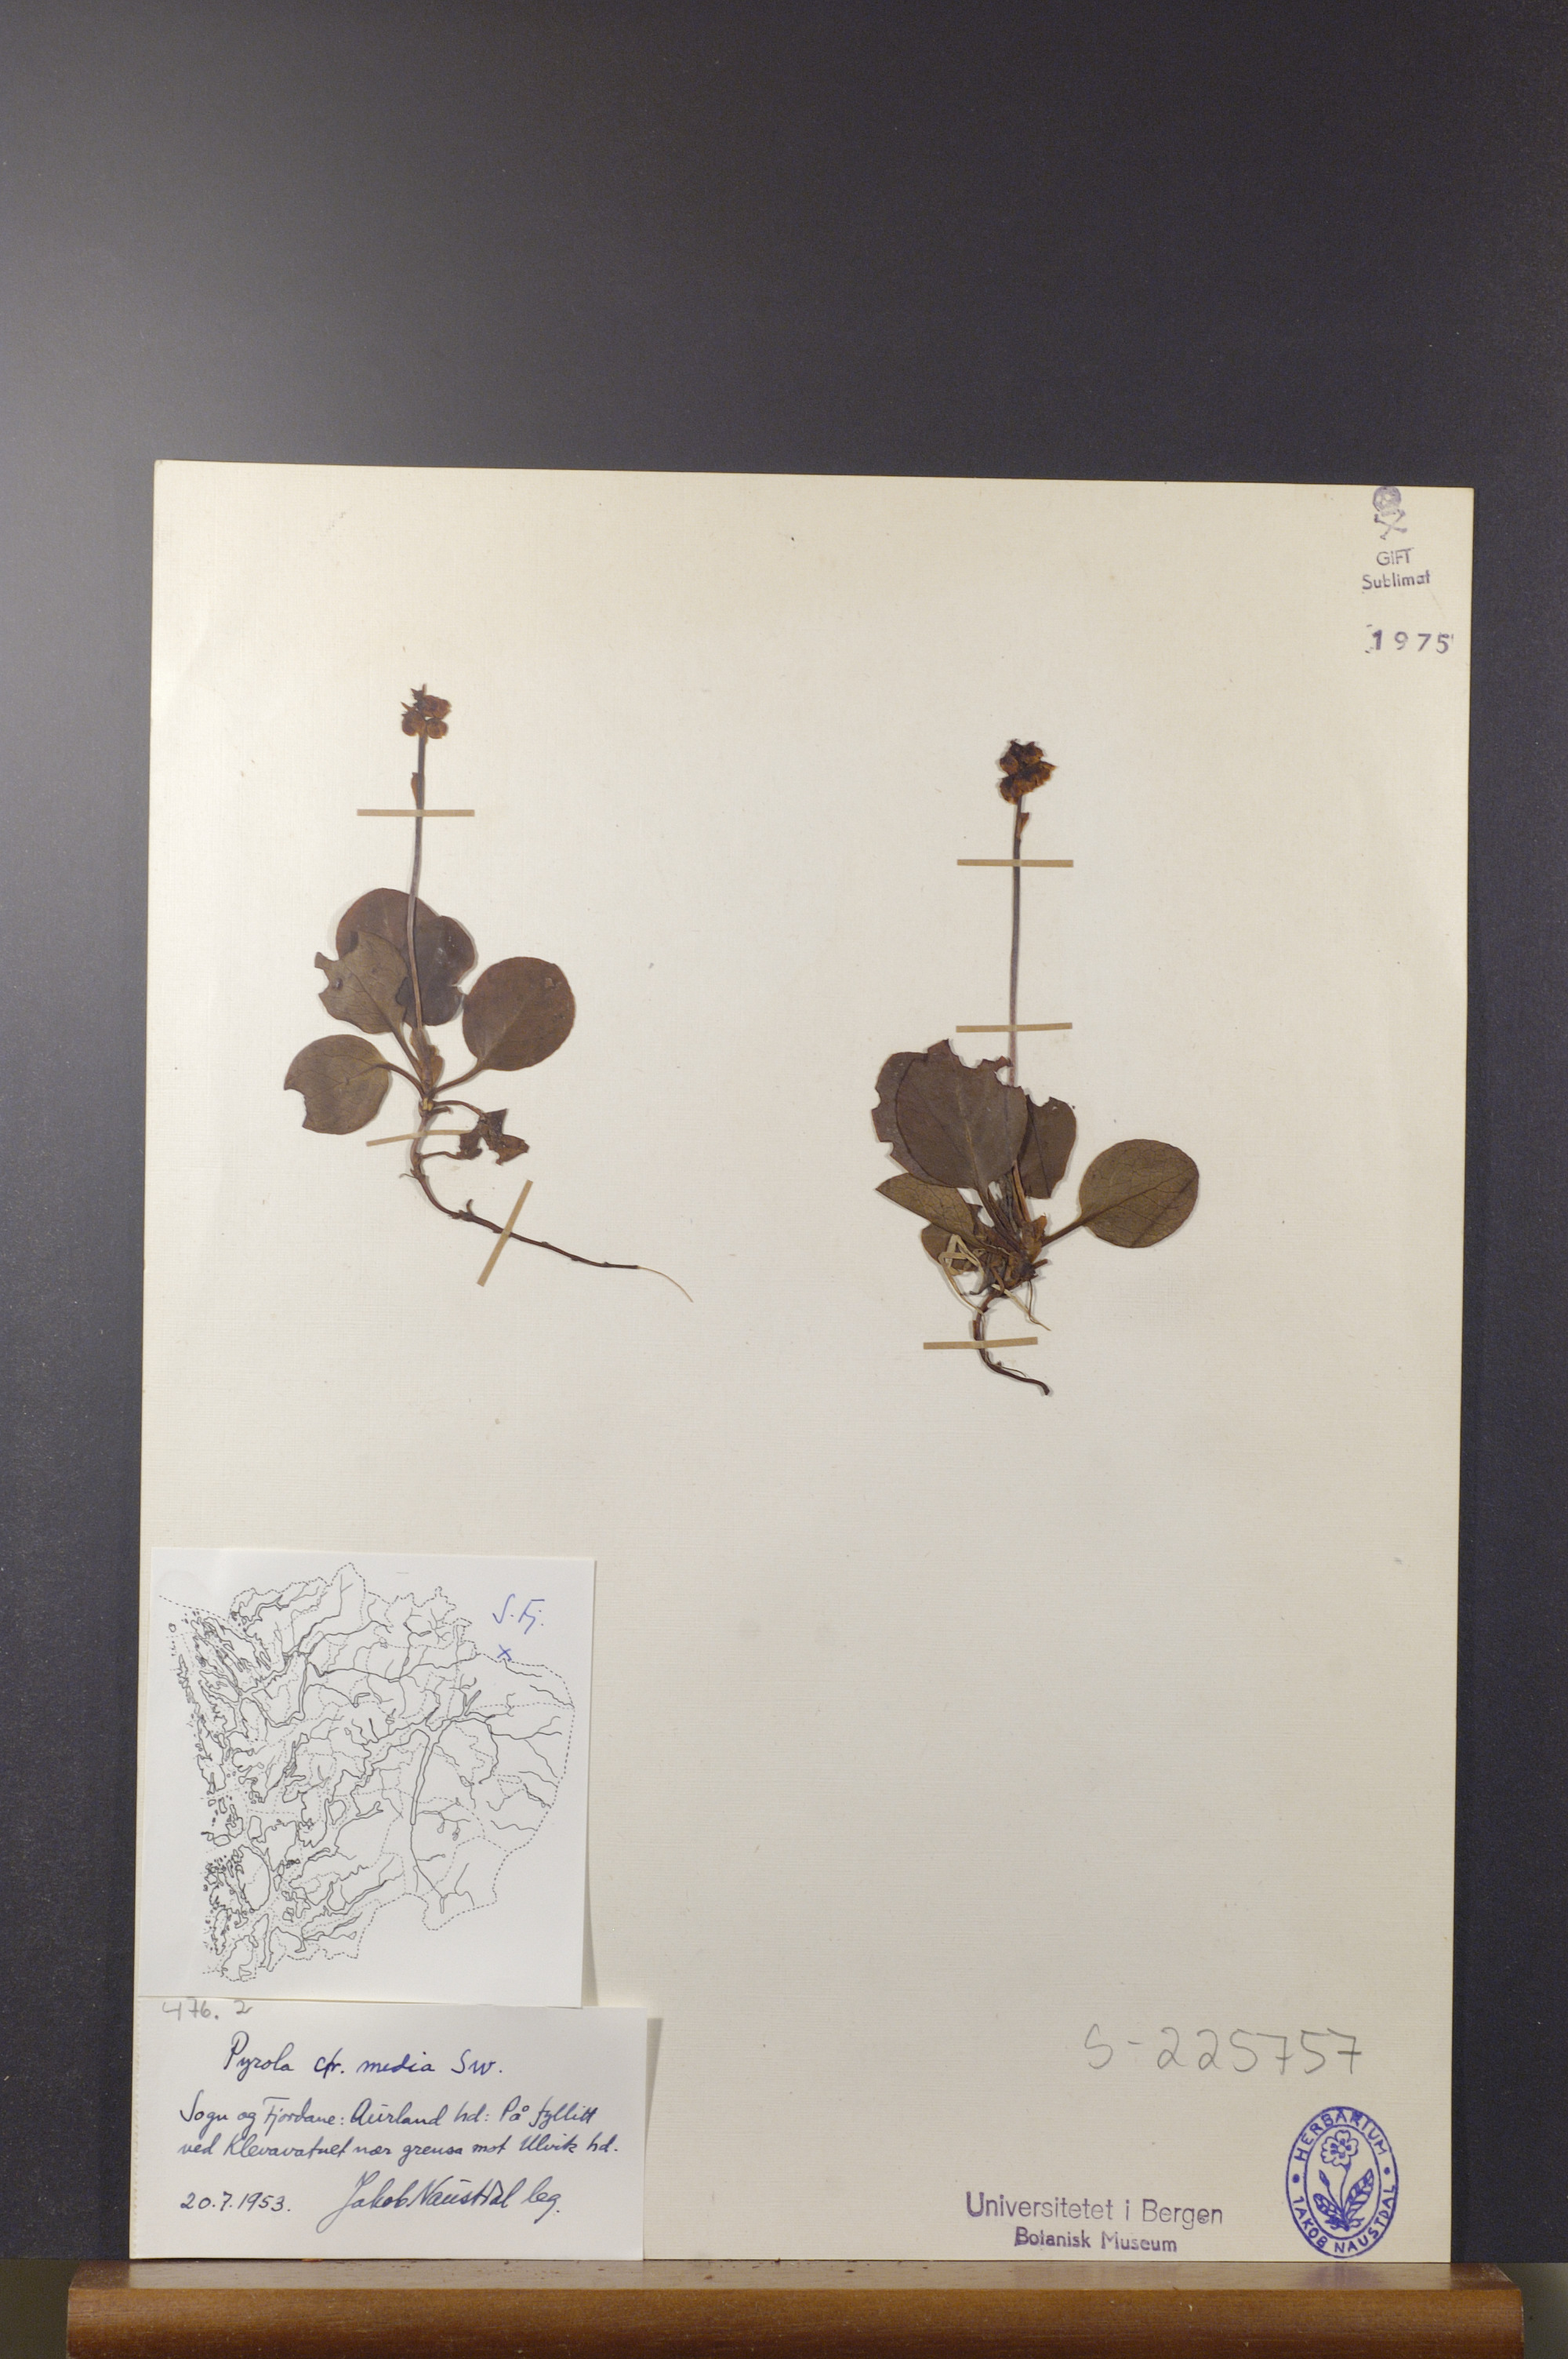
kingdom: Plantae
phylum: Tracheophyta
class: Magnoliopsida
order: Ericales
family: Ericaceae
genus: Pyrola
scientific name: Pyrola media
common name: Intermediate wintergreen
